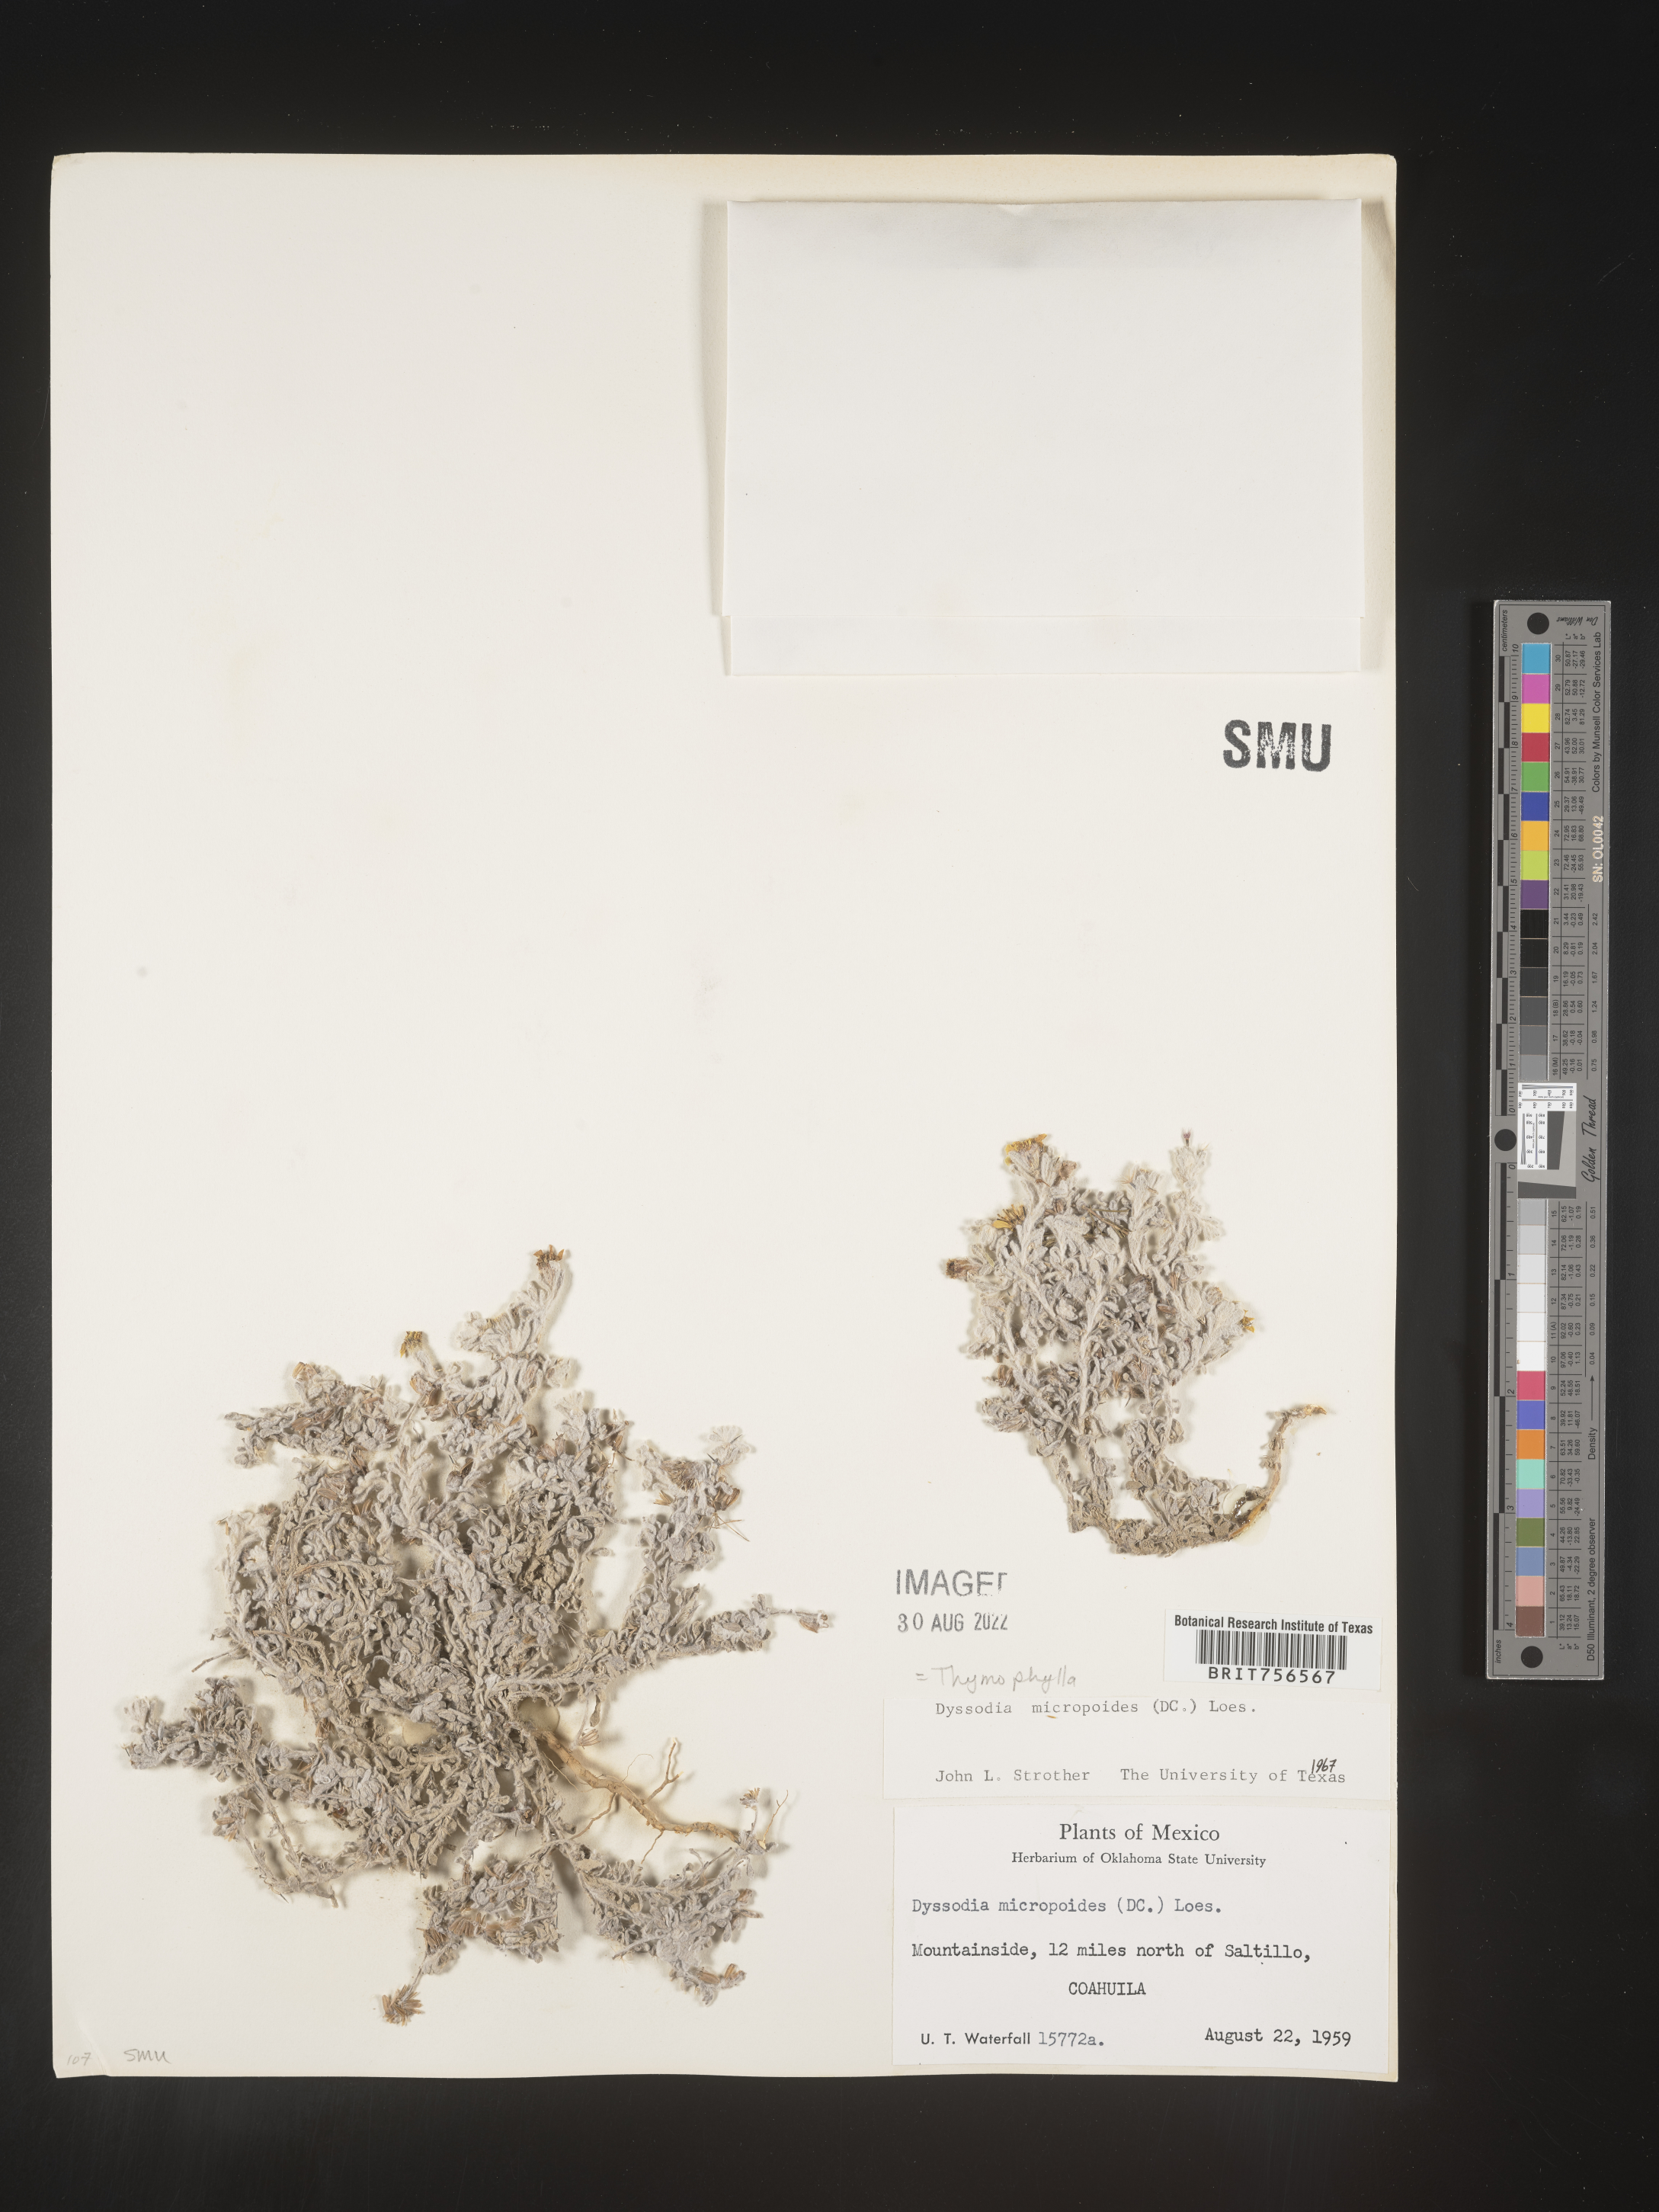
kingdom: Plantae
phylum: Tracheophyta
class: Magnoliopsida
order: Asterales
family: Asteraceae
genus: Thymophylla
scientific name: Thymophylla micropoides
